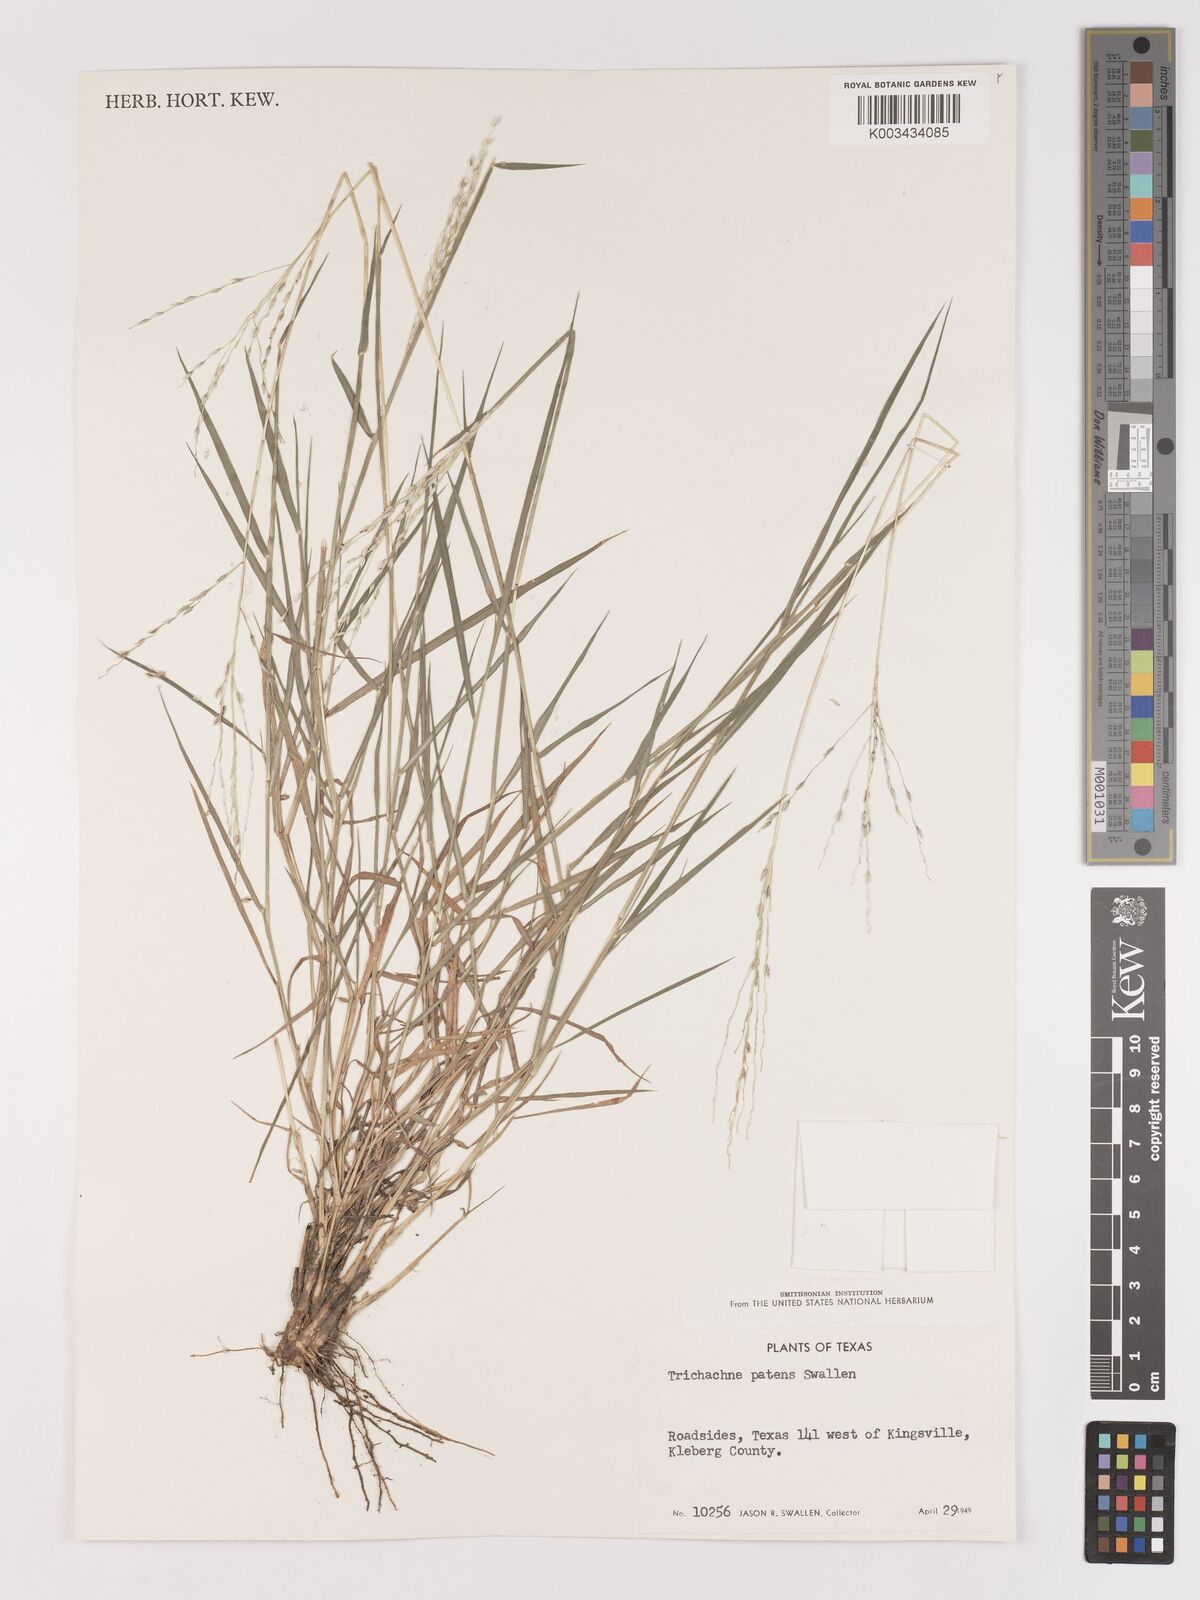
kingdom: Plantae
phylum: Tracheophyta
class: Liliopsida
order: Poales
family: Poaceae
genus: Digitaria
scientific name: Digitaria patens
